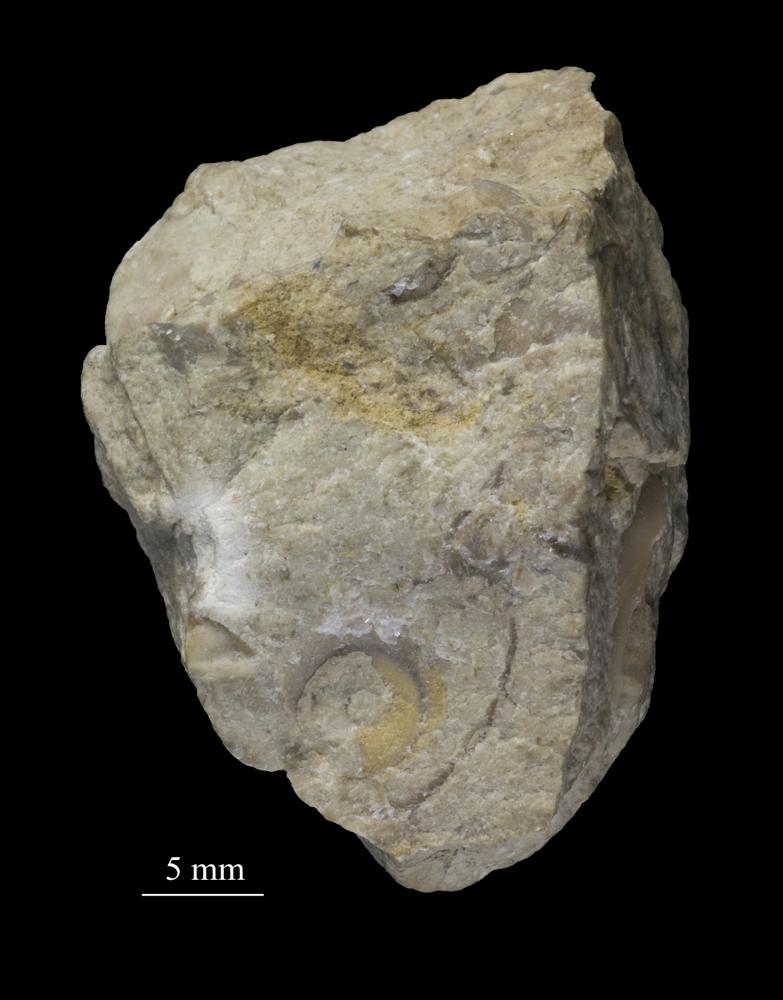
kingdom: Animalia
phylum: Mollusca
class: Gastropoda
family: Bucaniidae
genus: Tetranota
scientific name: Tetranota Bucaniella lineata
